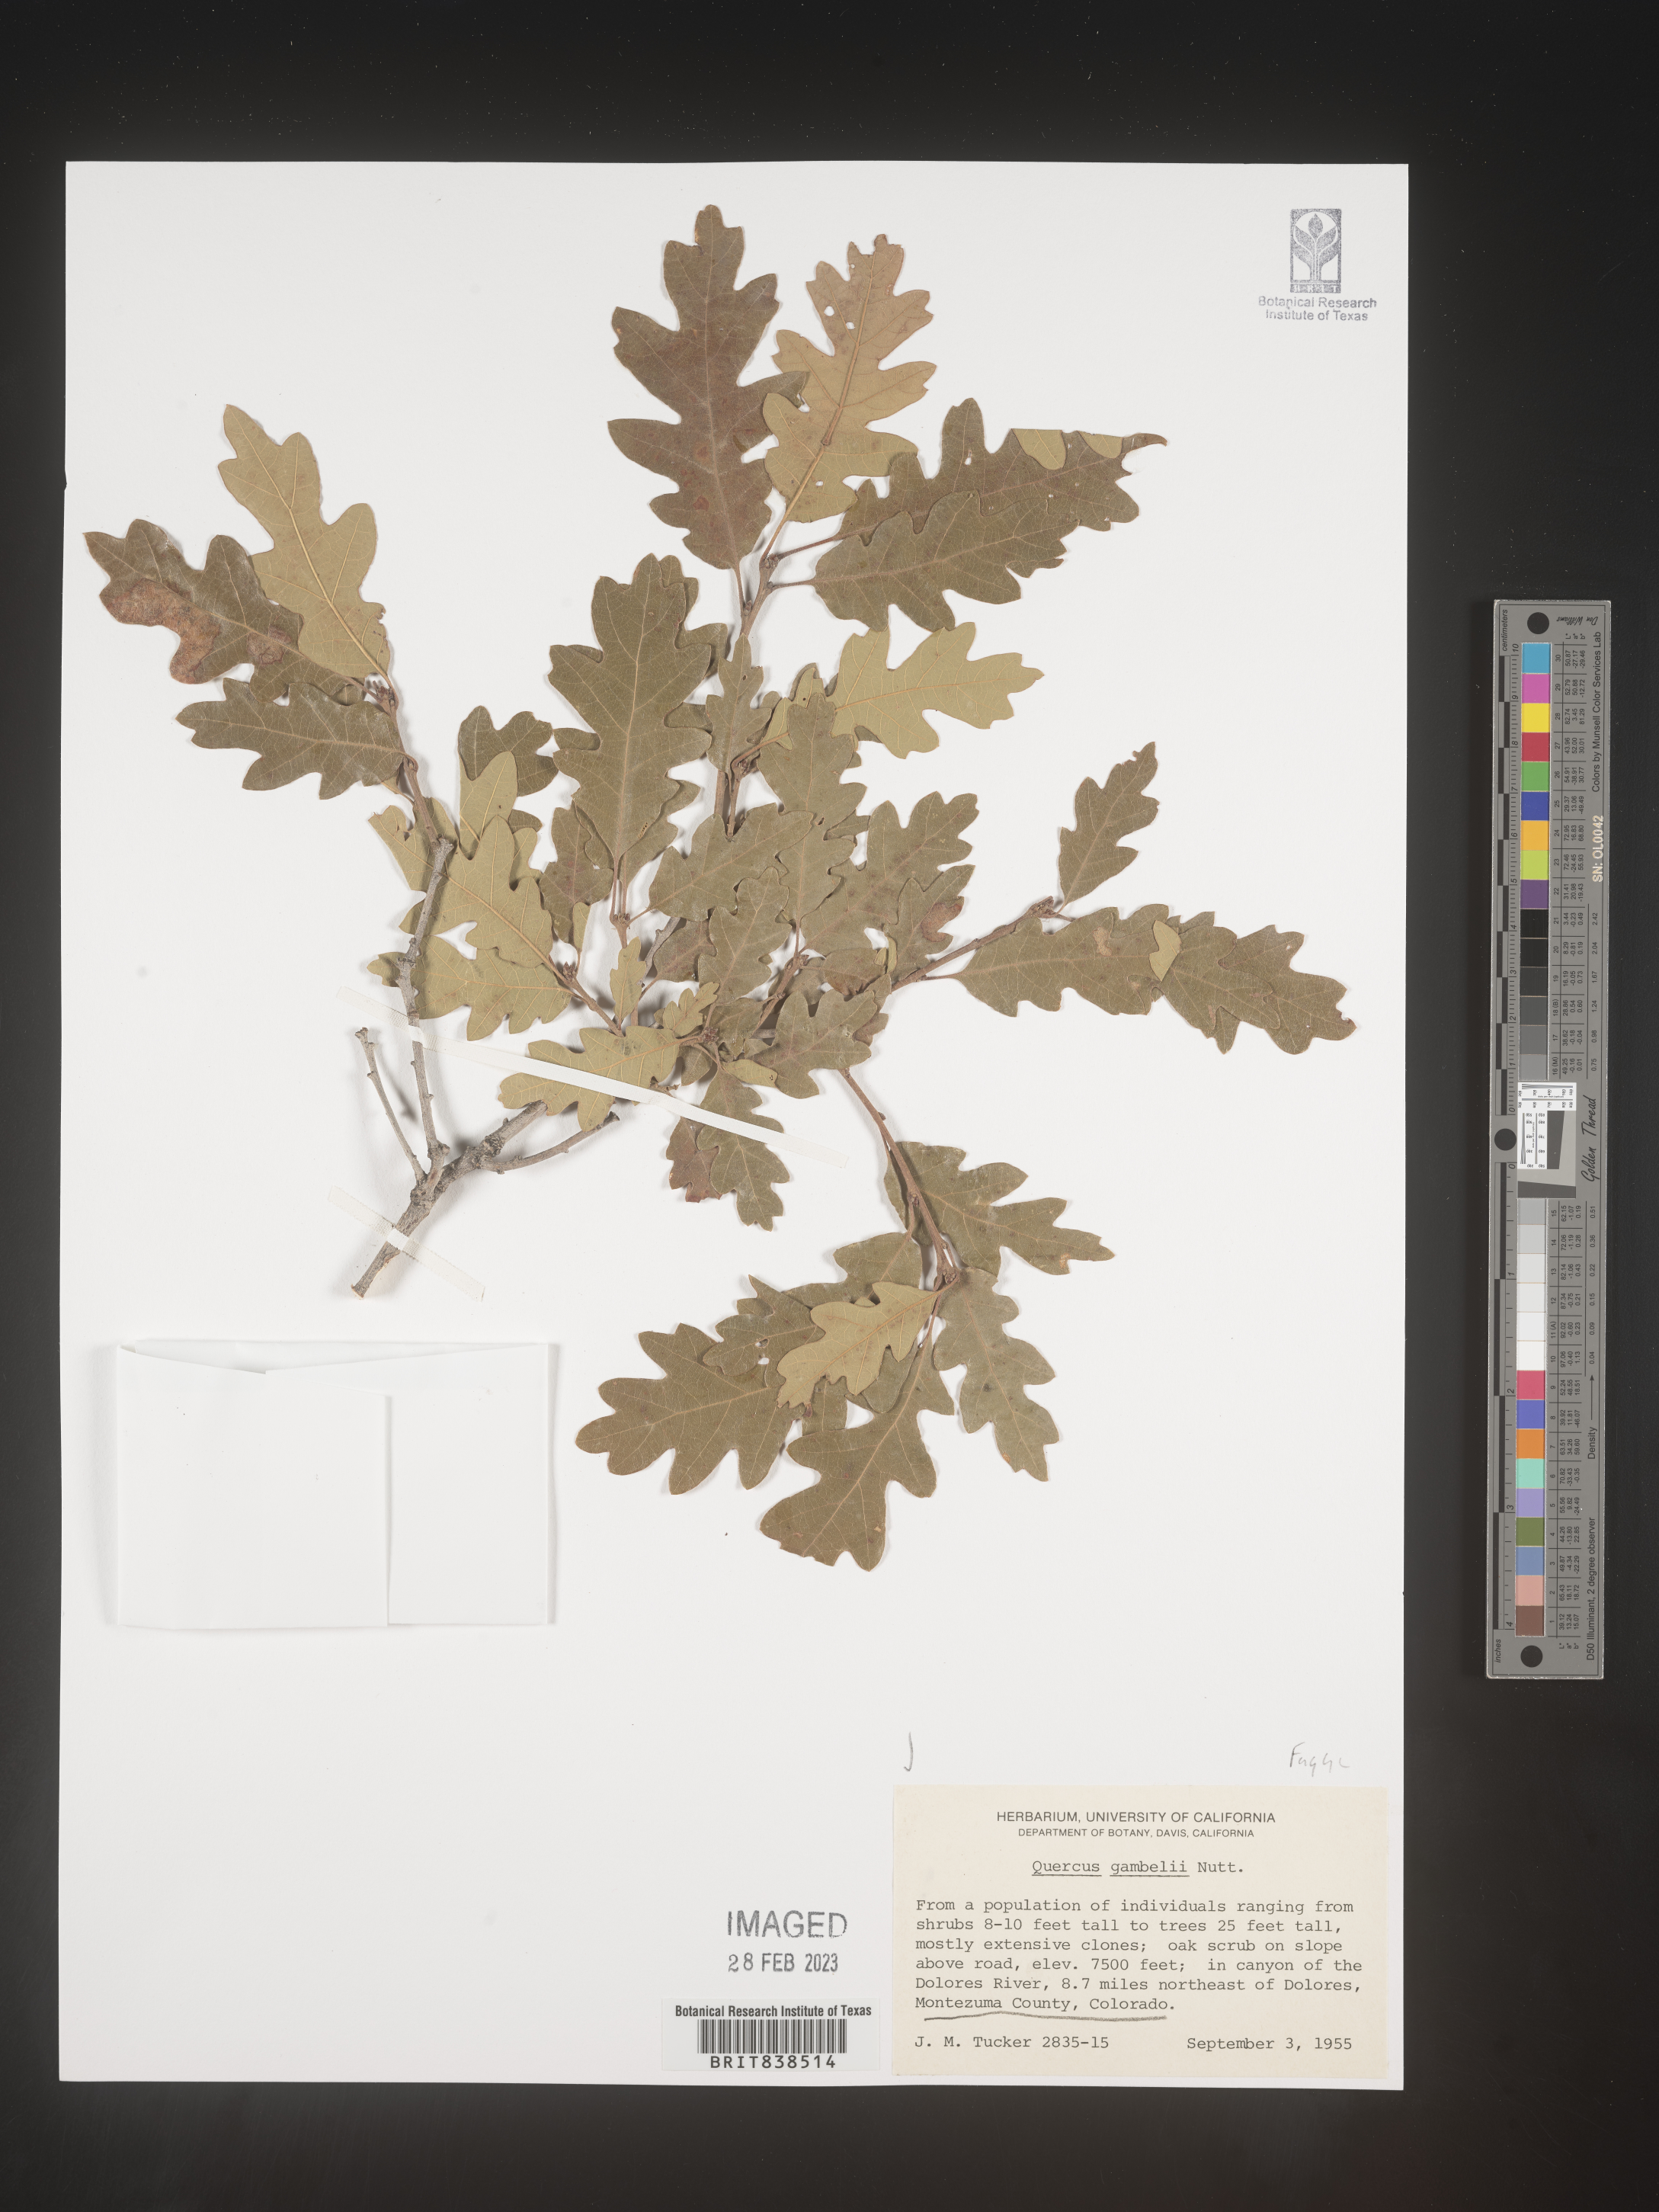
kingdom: Plantae
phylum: Tracheophyta
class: Magnoliopsida
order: Fagales
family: Fagaceae
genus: Quercus
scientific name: Quercus gambelii
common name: Gambel oak
